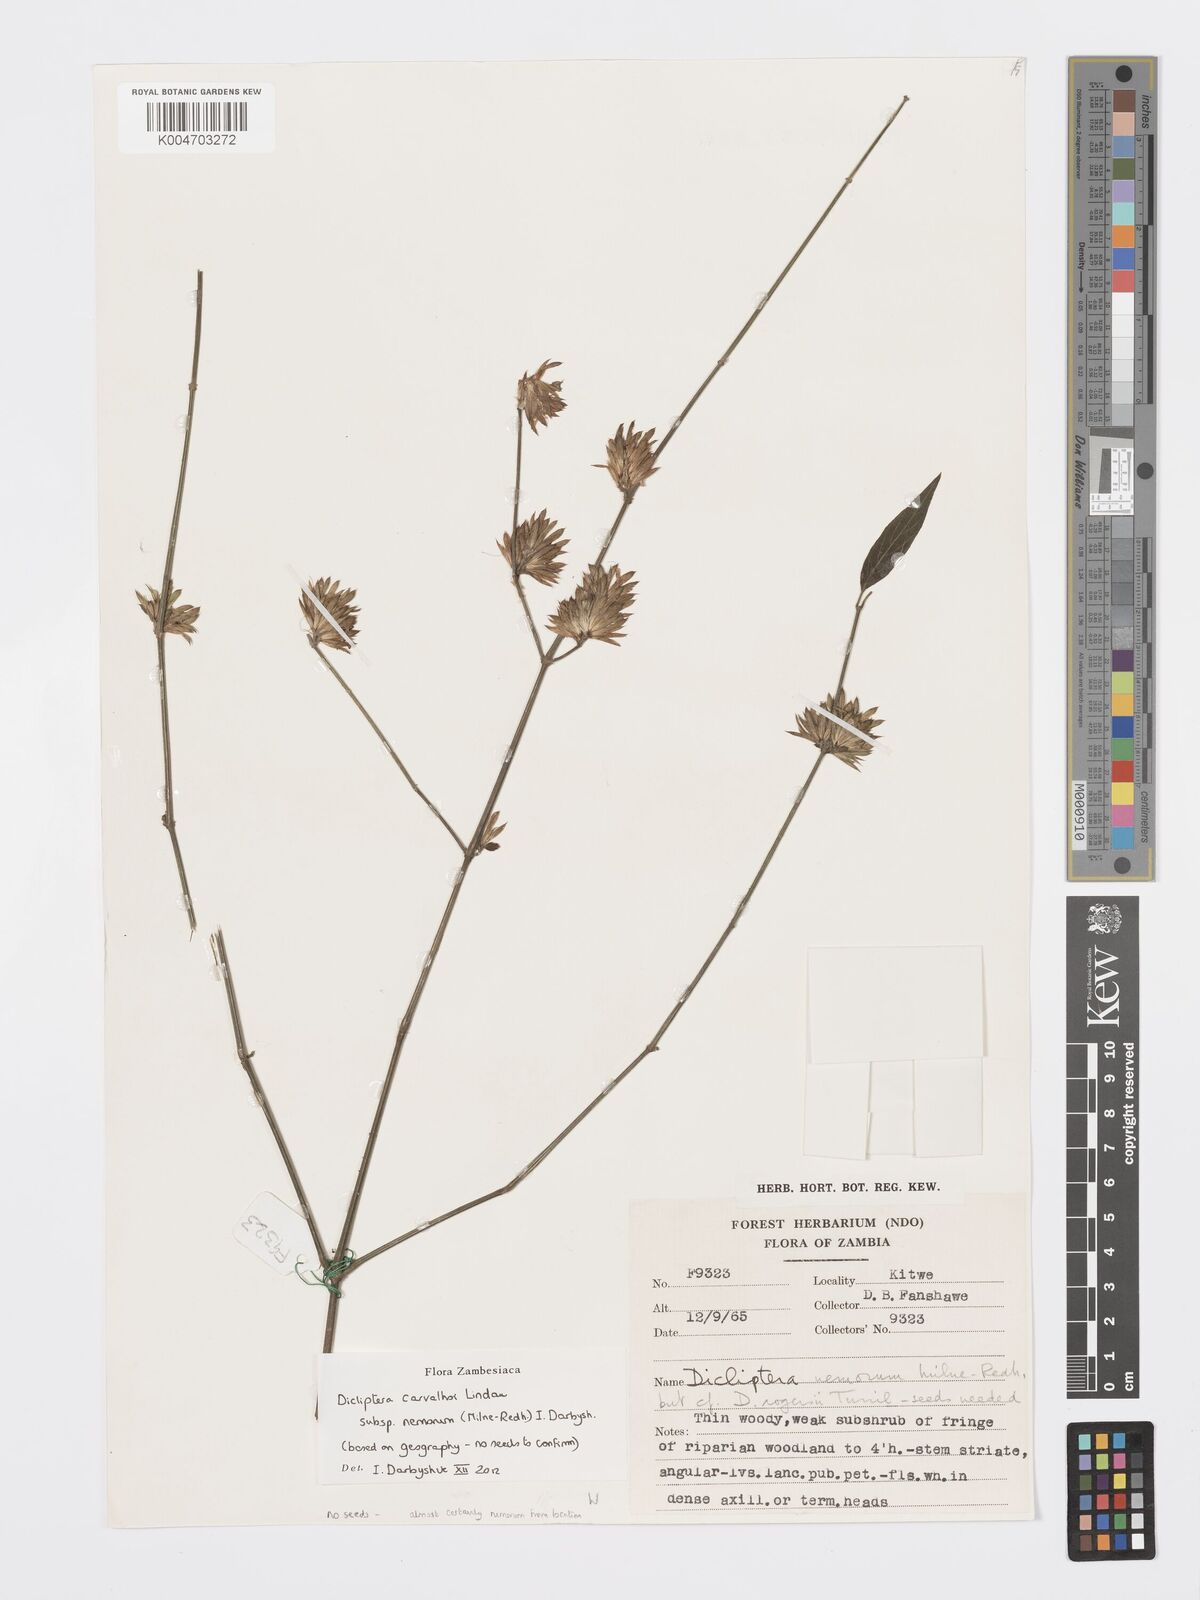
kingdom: Plantae
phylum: Tracheophyta
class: Magnoliopsida
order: Lamiales
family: Acanthaceae
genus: Dicliptera
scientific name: Dicliptera carvalhoi
